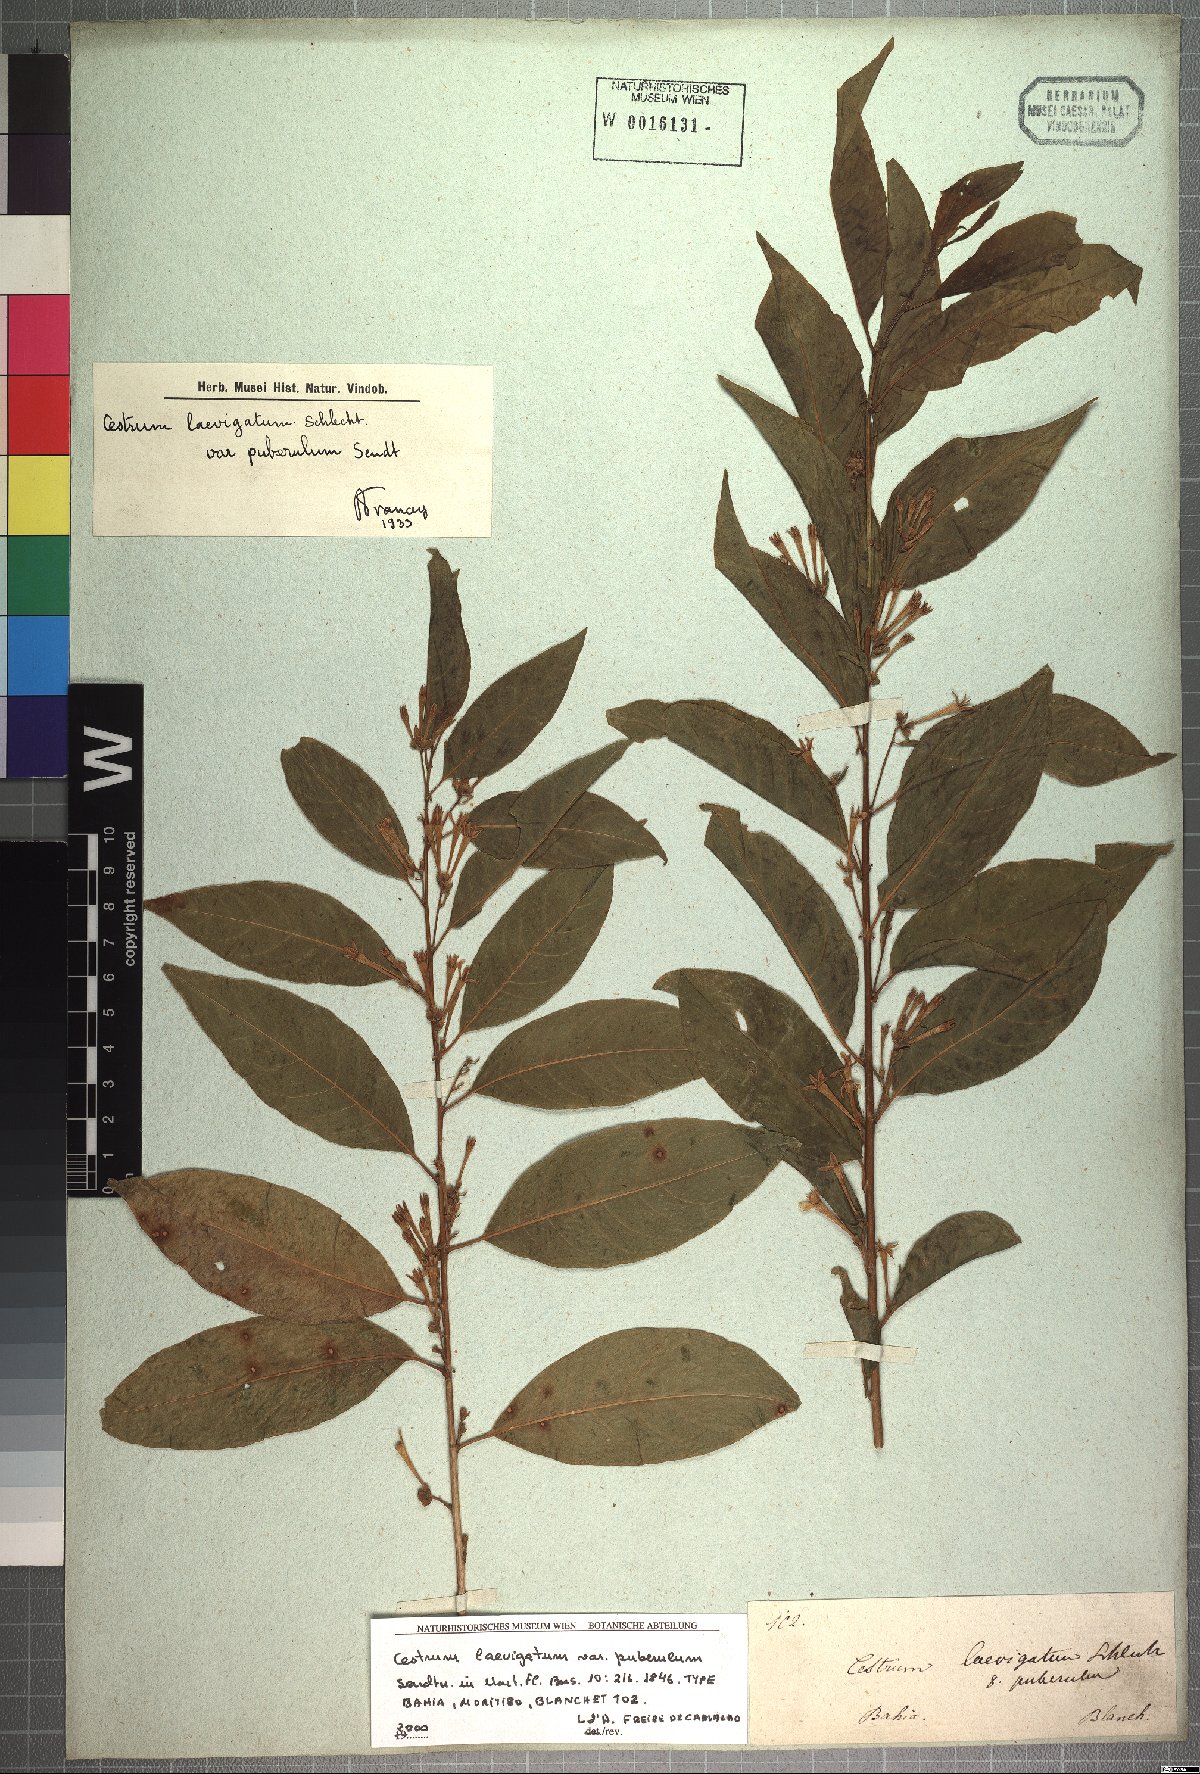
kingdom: Plantae
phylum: Tracheophyta
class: Magnoliopsida
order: Solanales
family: Solanaceae
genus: Cestrum
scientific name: Cestrum laevigatum
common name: Inkberry
